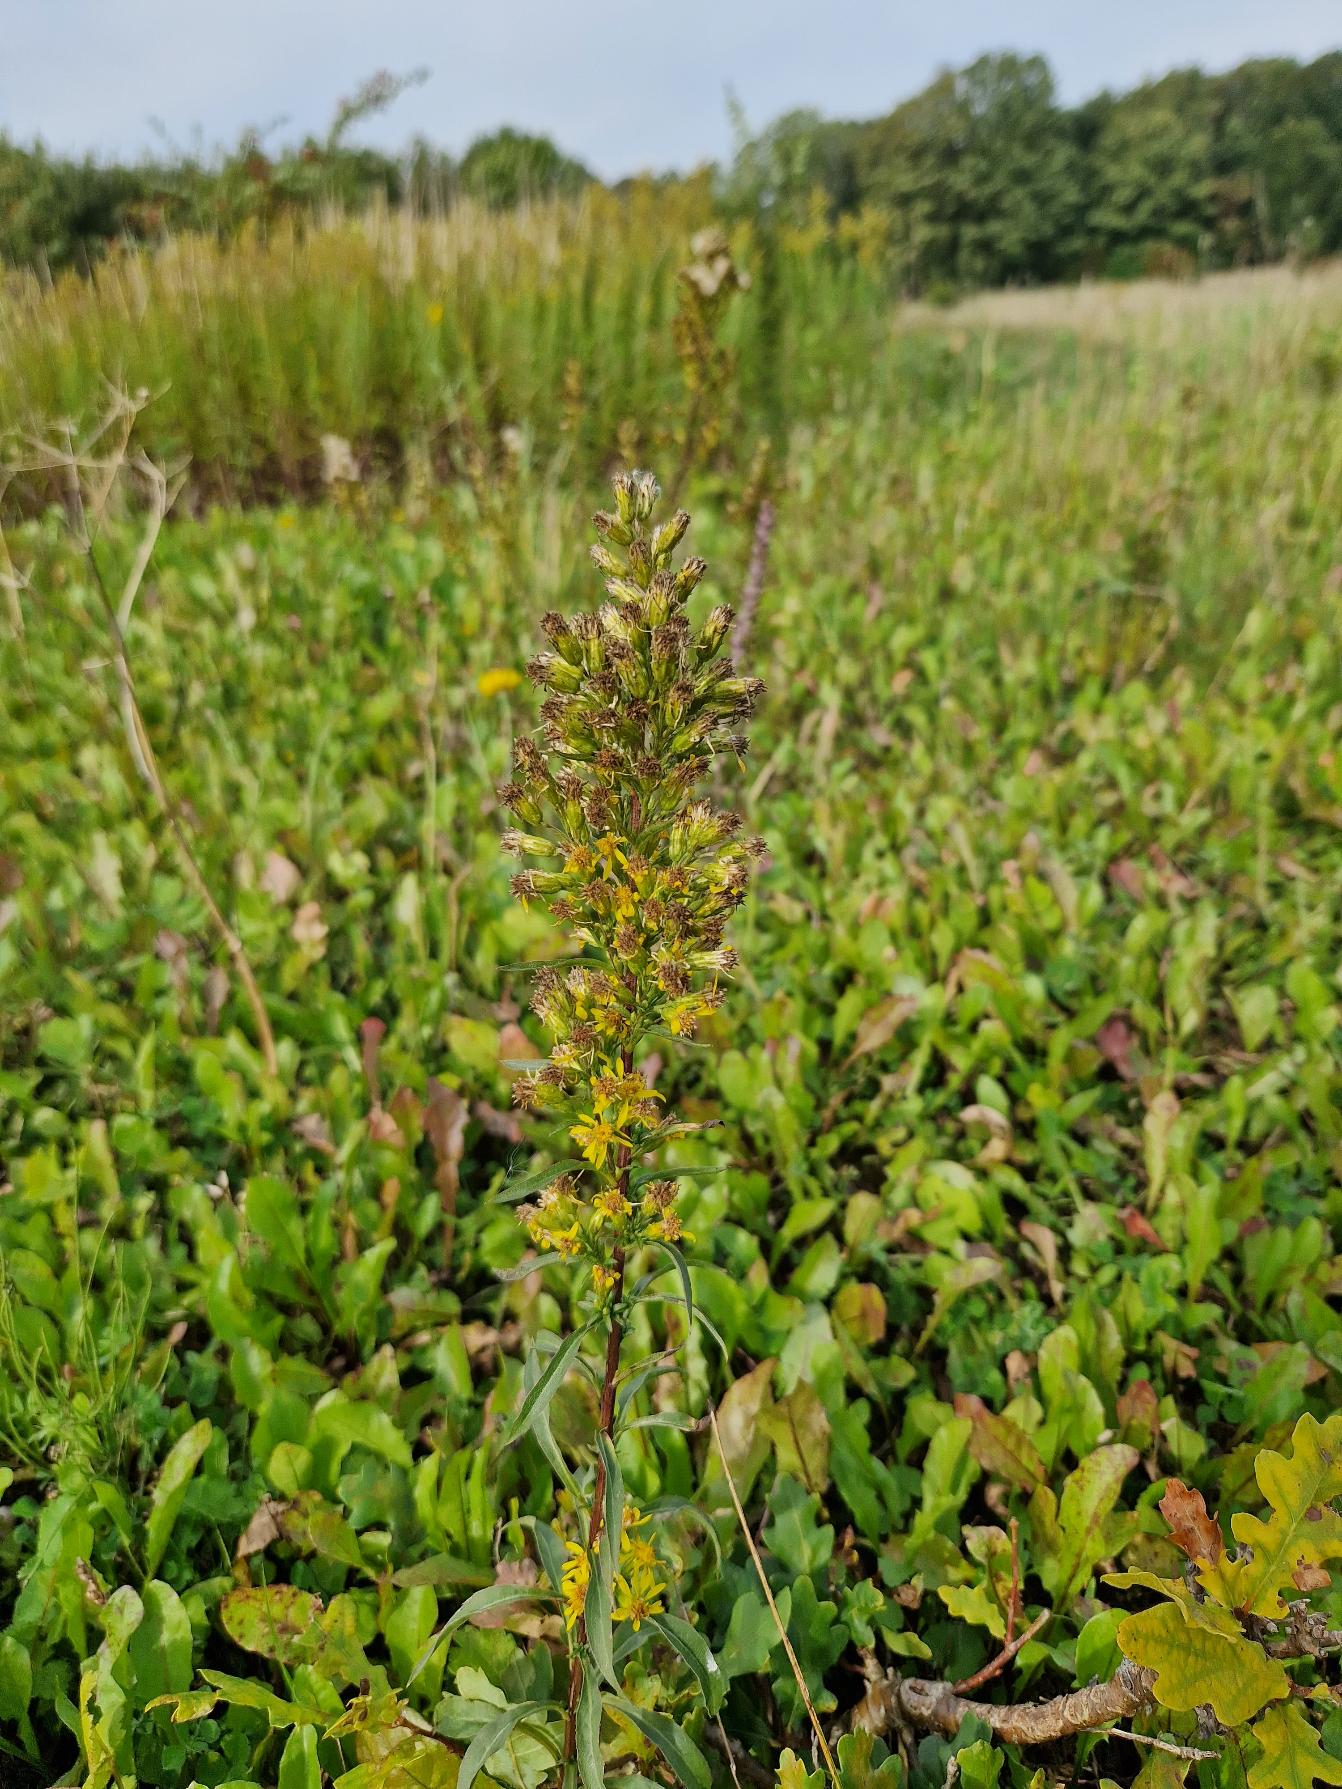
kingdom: Plantae
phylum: Tracheophyta
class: Magnoliopsida
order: Asterales
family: Asteraceae
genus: Solidago
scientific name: Solidago virgaurea
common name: Almindelig gyldenris
